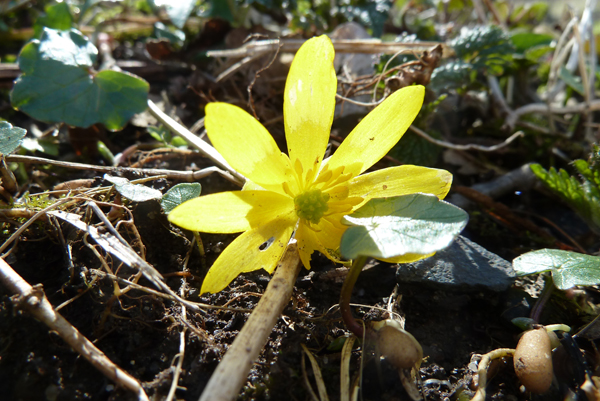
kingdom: Plantae
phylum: Tracheophyta
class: Magnoliopsida
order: Ranunculales
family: Ranunculaceae
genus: Ficaria
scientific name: Ficaria verna
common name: Lesser celandine
